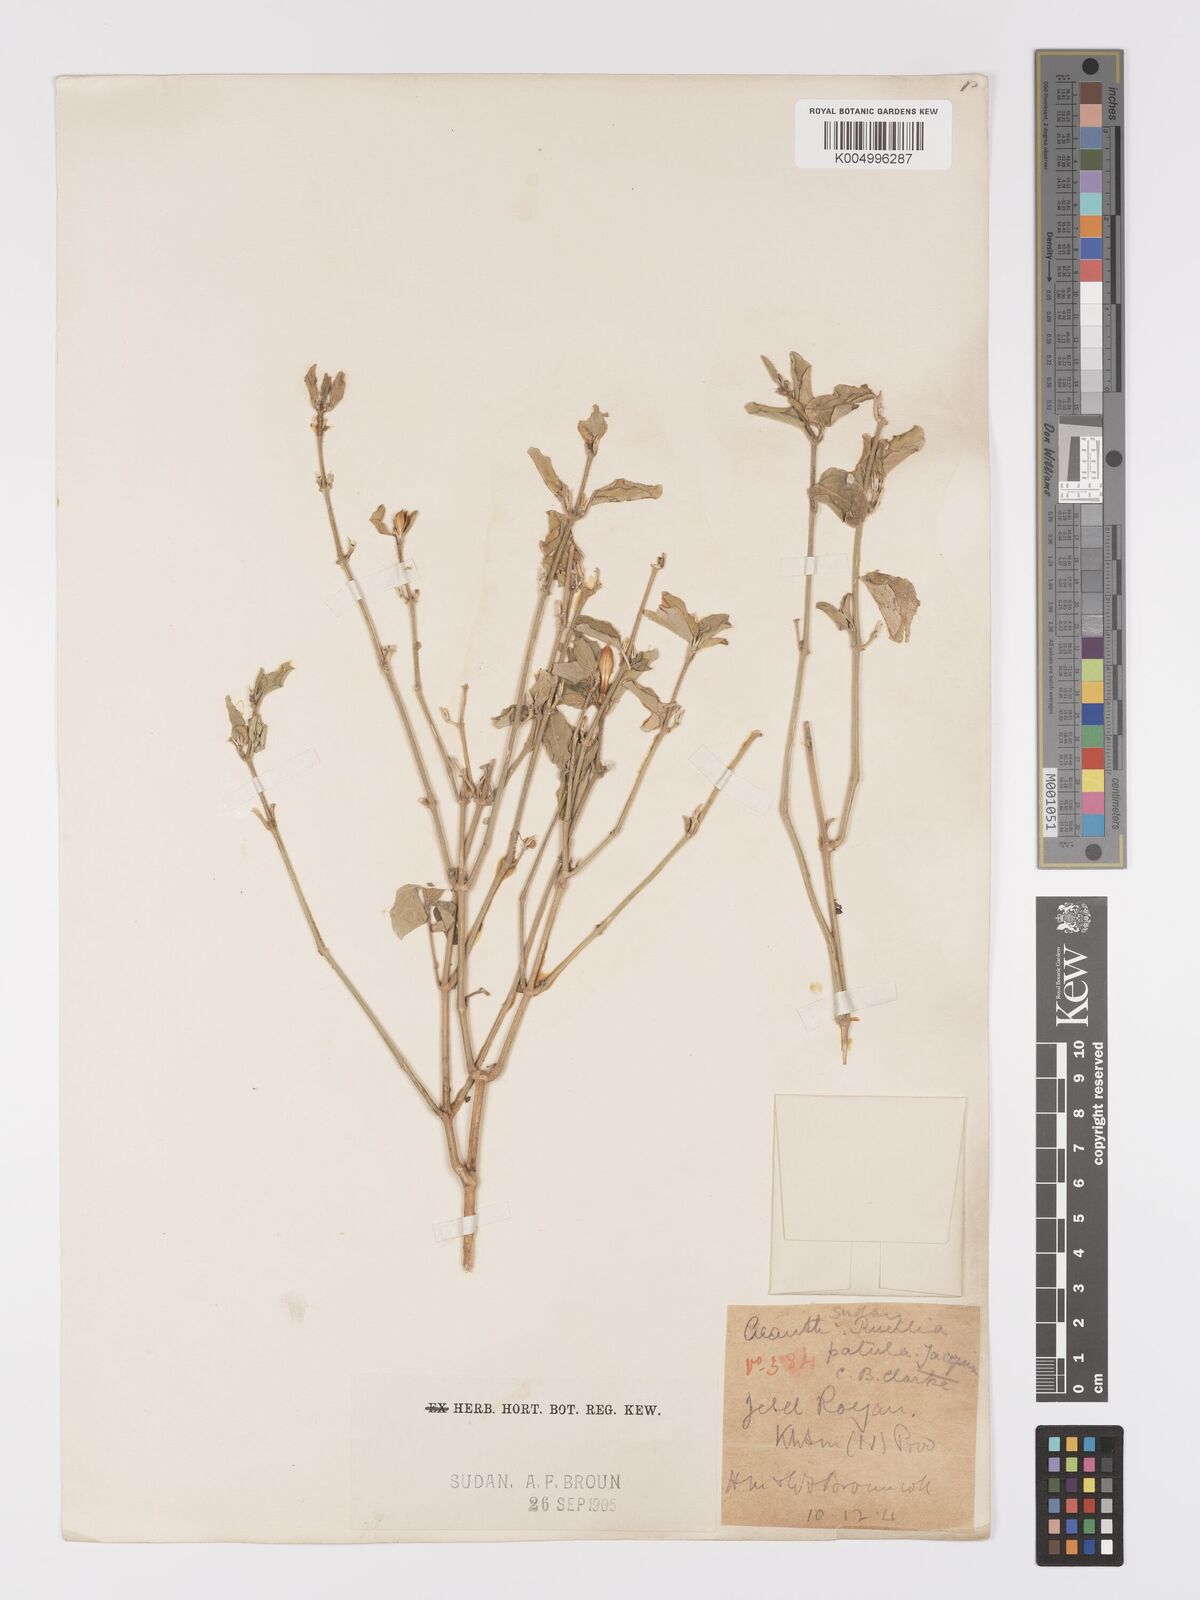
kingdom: Plantae
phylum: Tracheophyta
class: Magnoliopsida
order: Lamiales
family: Acanthaceae
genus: Ruellia
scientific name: Ruellia patula
